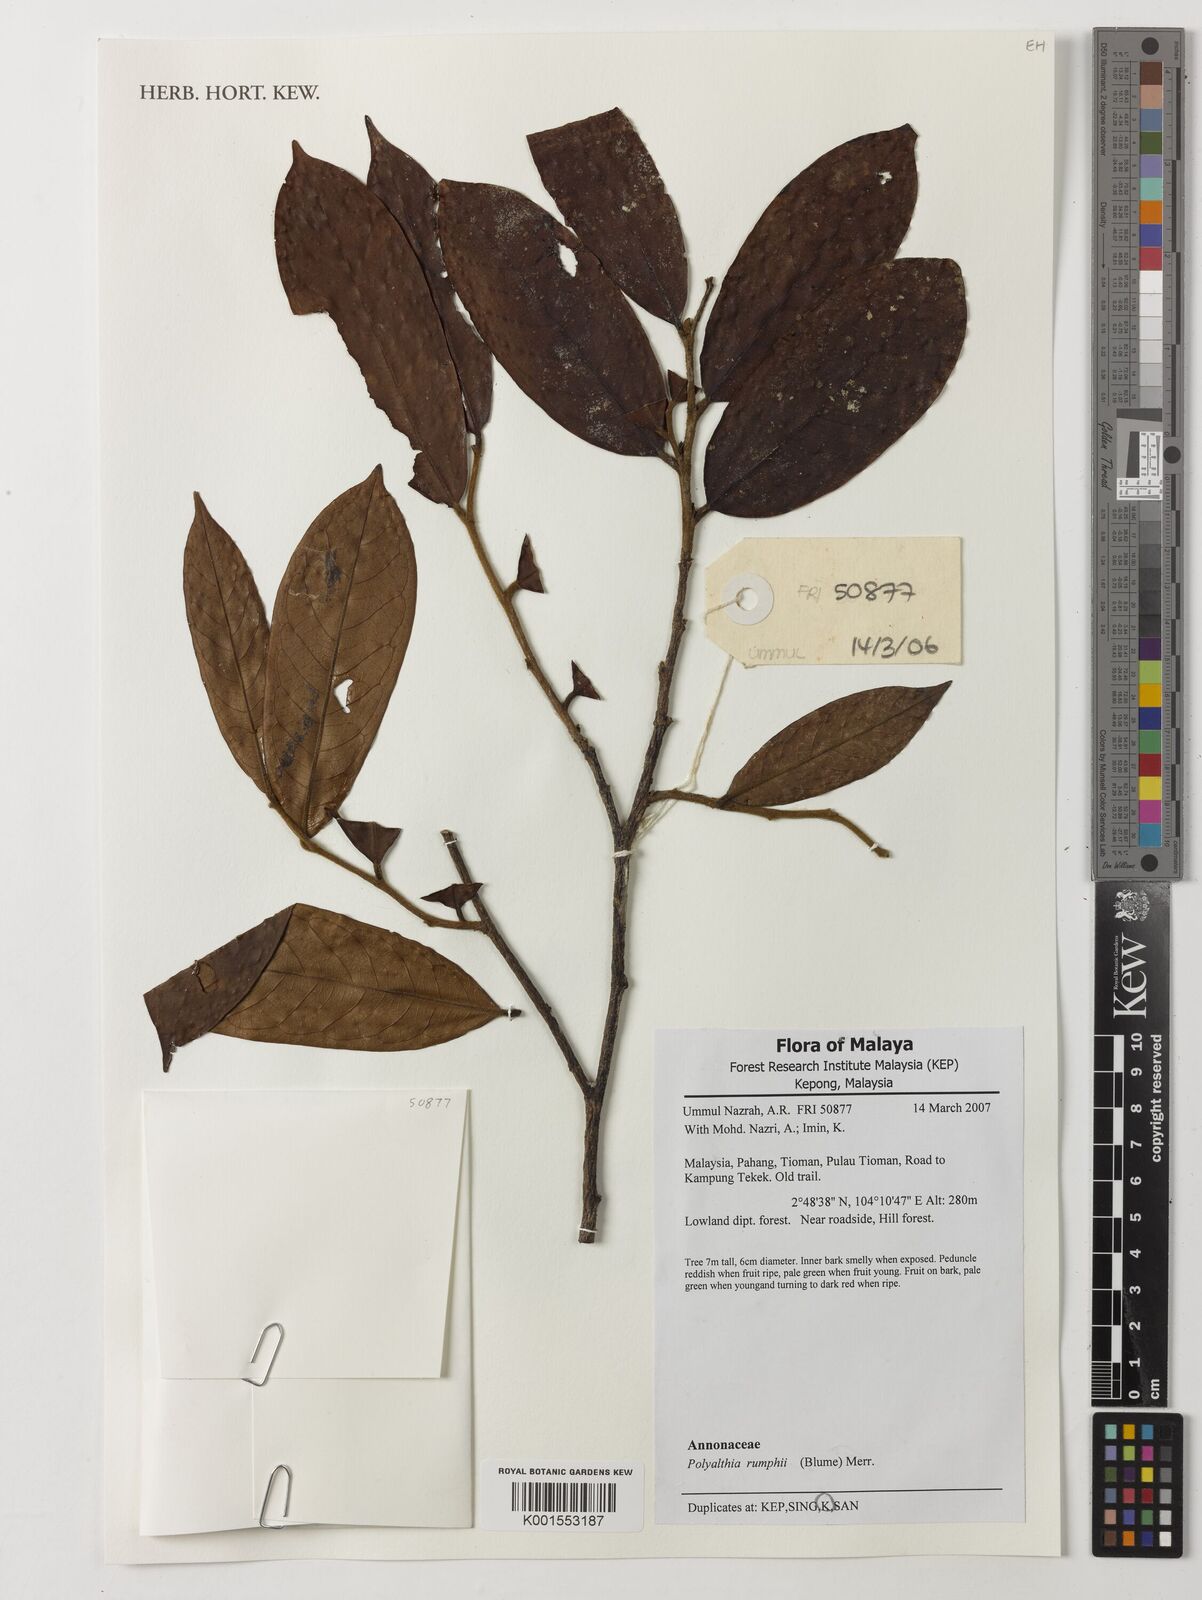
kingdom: Plantae
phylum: Tracheophyta
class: Magnoliopsida
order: Magnoliales
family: Annonaceae
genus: Hubera
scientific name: Hubera rumphii
